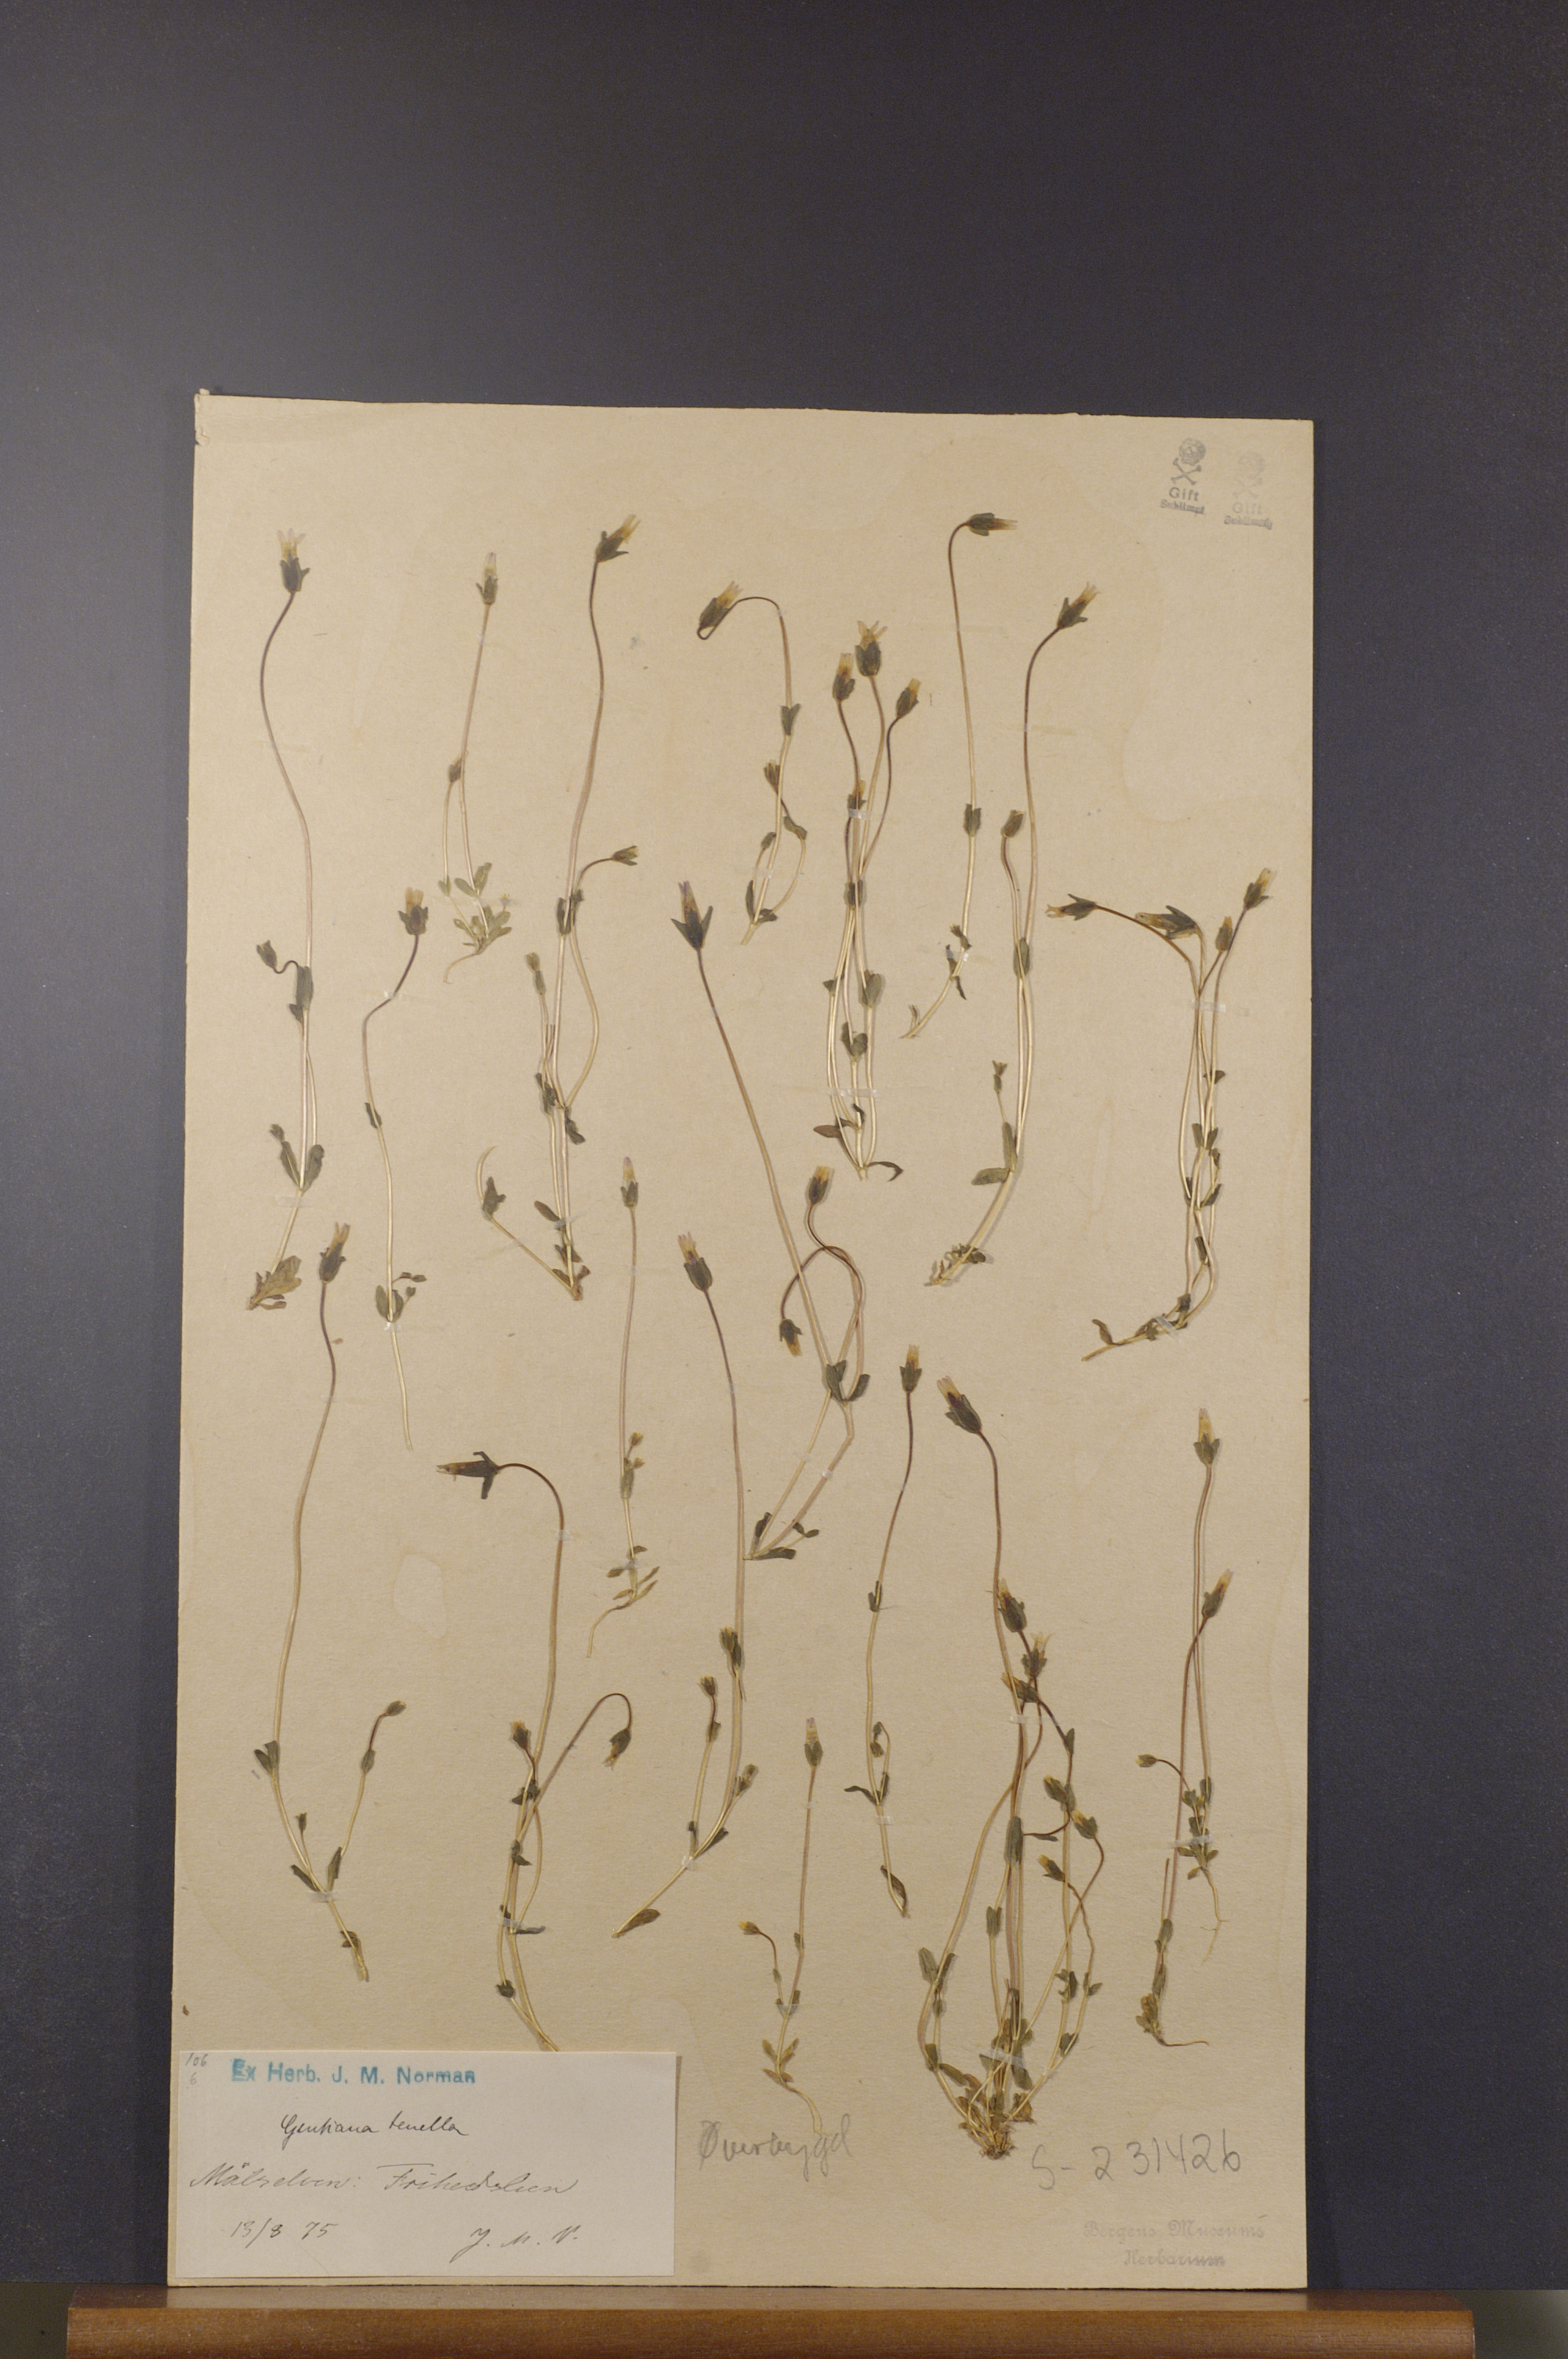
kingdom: Plantae
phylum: Tracheophyta
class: Magnoliopsida
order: Gentianales
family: Gentianaceae
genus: Comastoma
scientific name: Comastoma tenellum
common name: Dane's dwarf gentian
